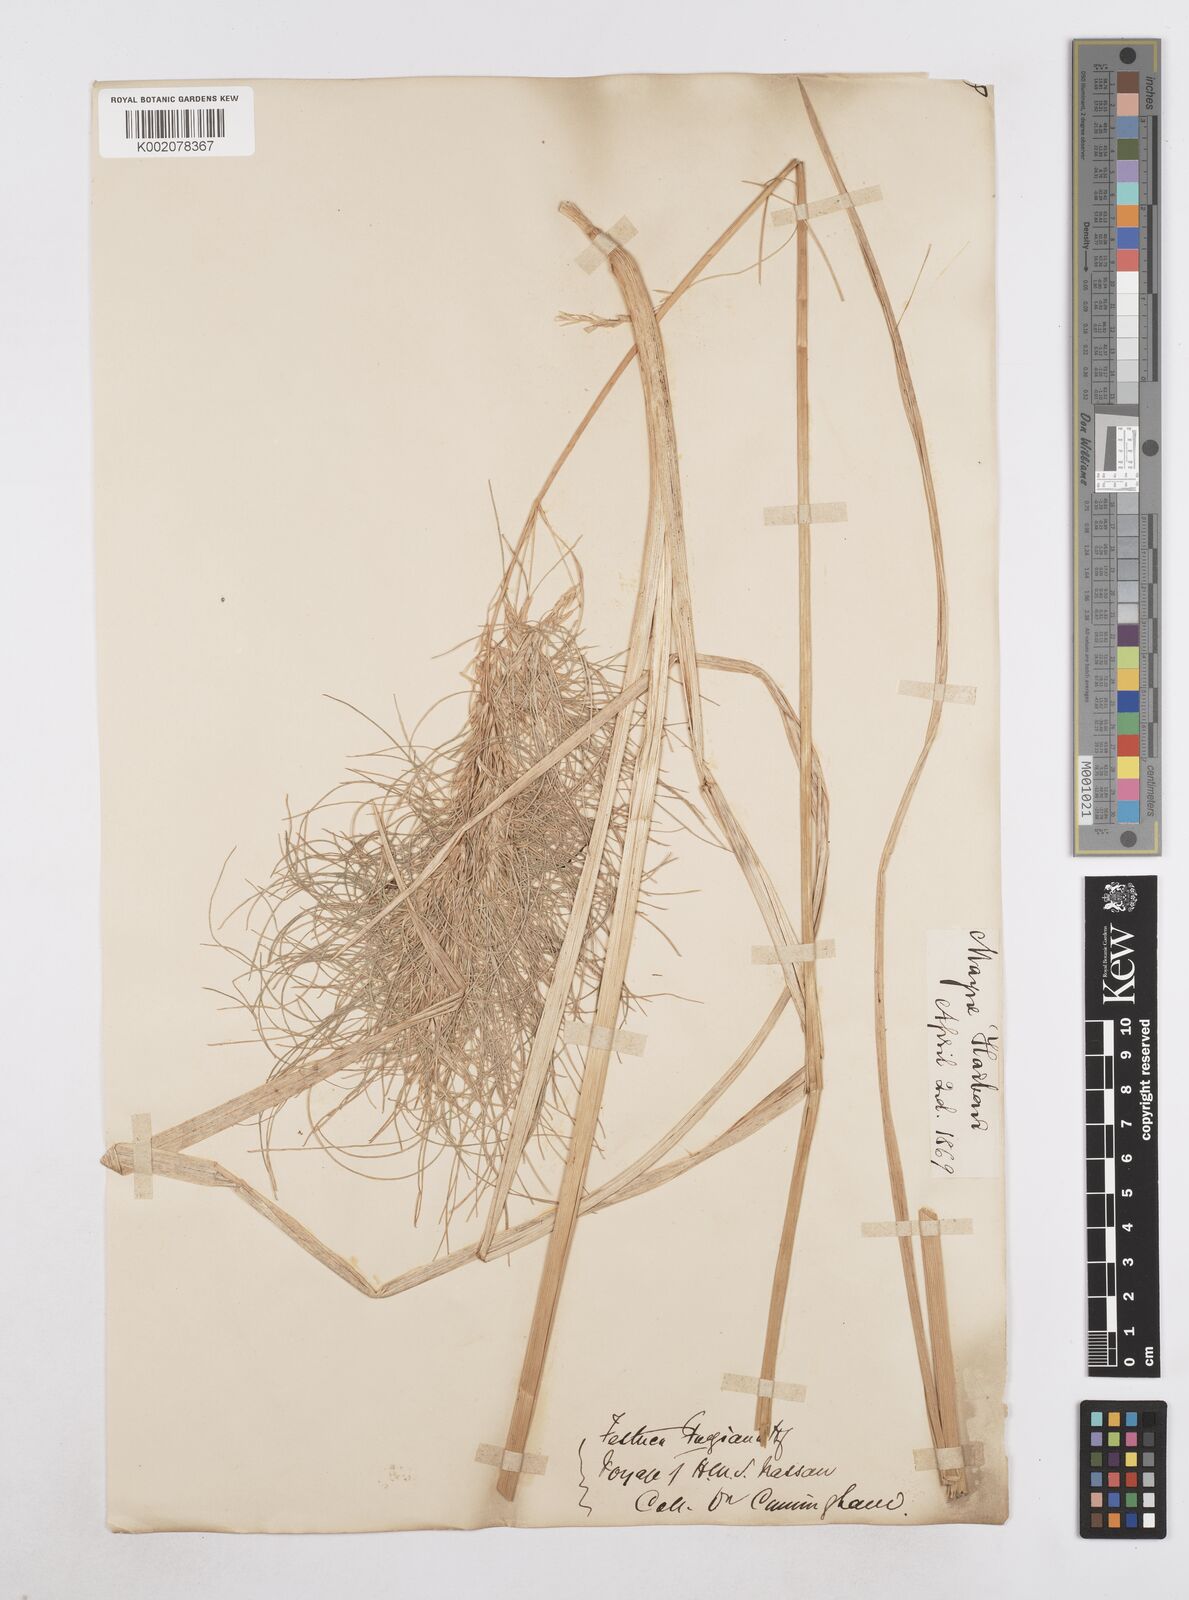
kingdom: Plantae
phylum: Tracheophyta
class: Liliopsida
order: Poales
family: Poaceae
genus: Poa
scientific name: Poa alopecurus
